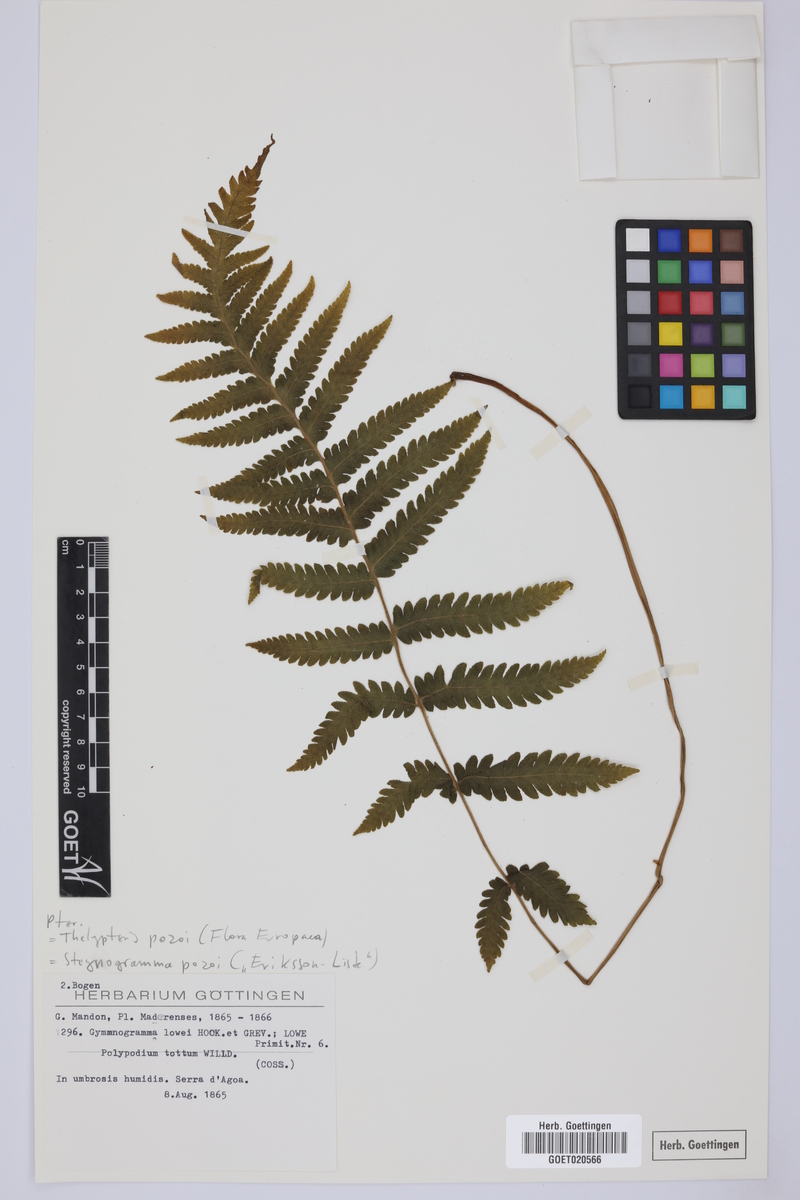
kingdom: Plantae
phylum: Tracheophyta
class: Polypodiopsida
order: Polypodiales
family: Thelypteridaceae
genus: Leptogramma
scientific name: Leptogramma pozoi
